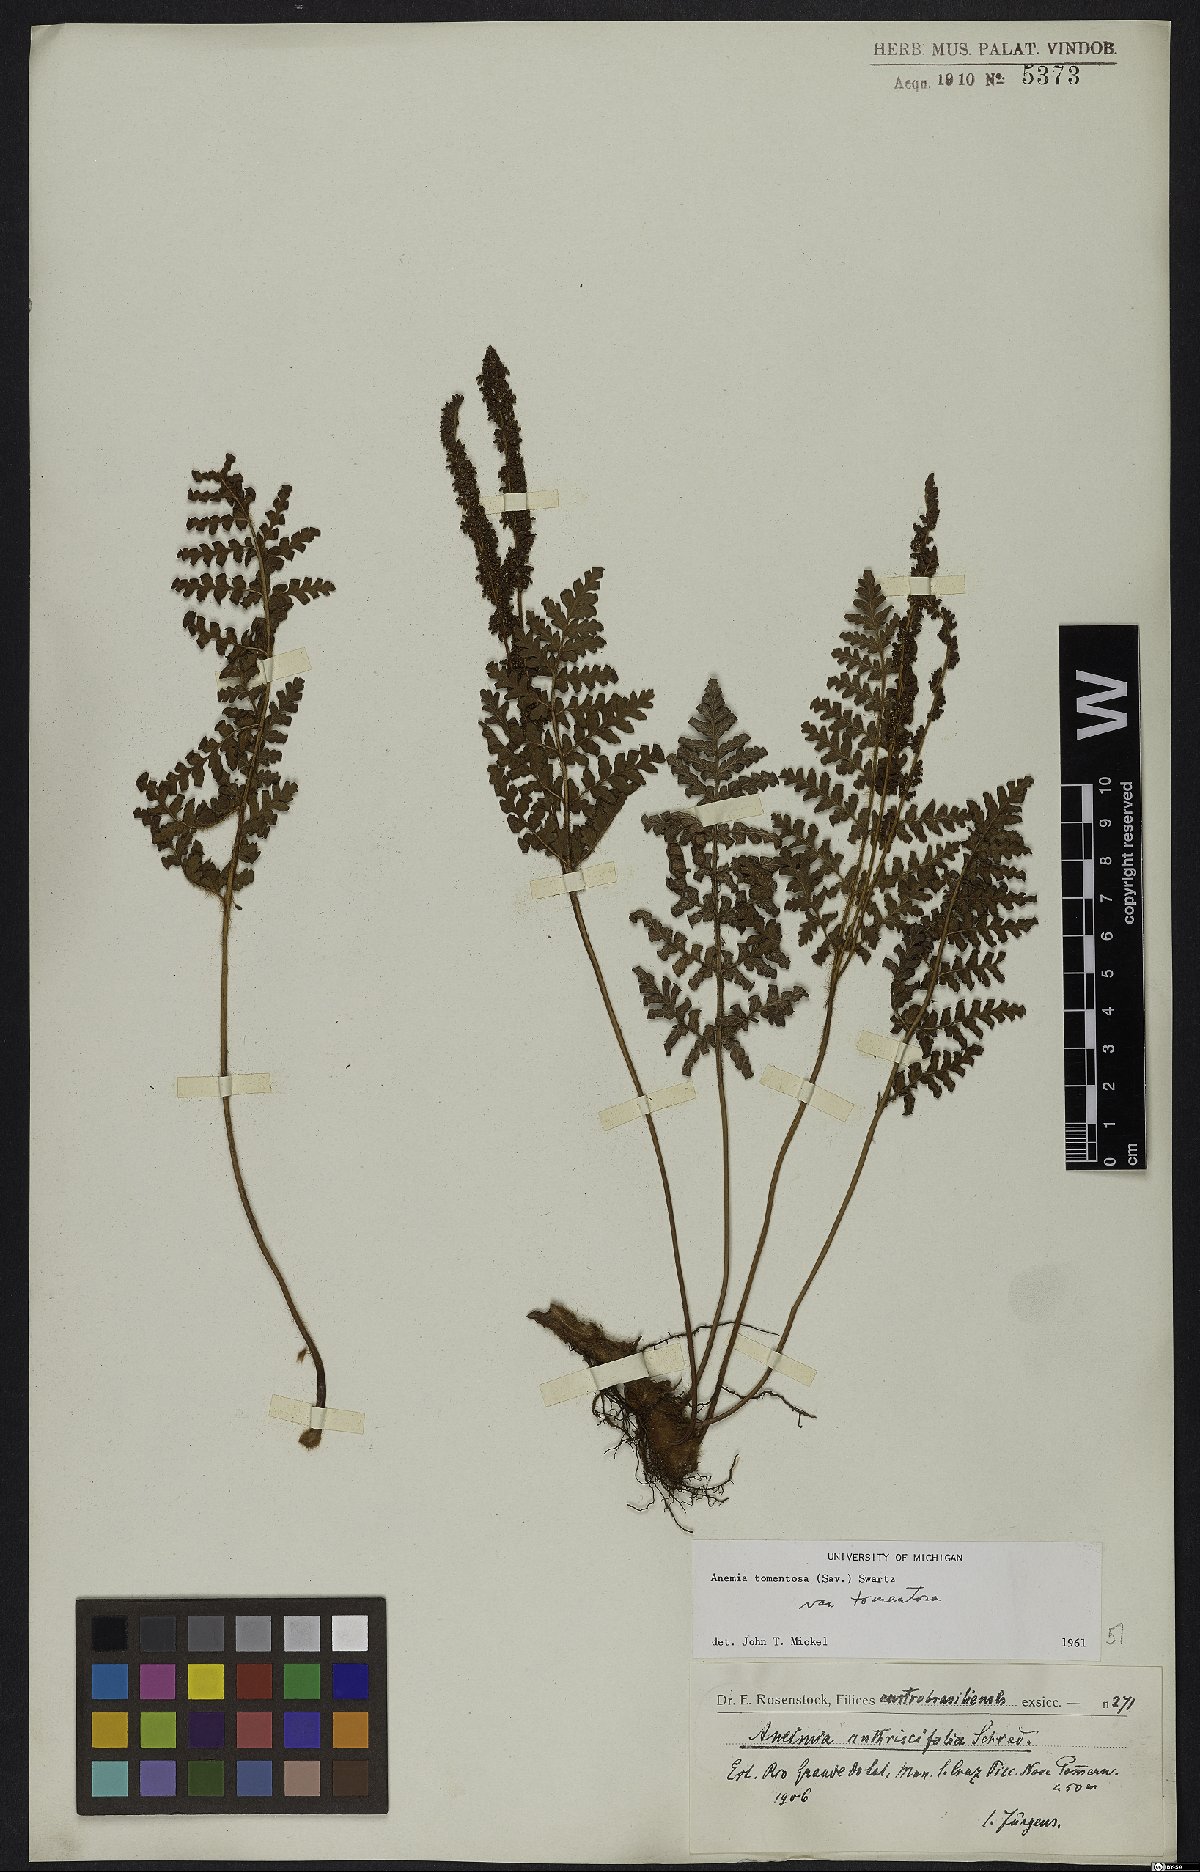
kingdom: Plantae
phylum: Tracheophyta
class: Polypodiopsida
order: Schizaeales
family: Anemiaceae
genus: Anemia
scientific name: Anemia tomentosa
